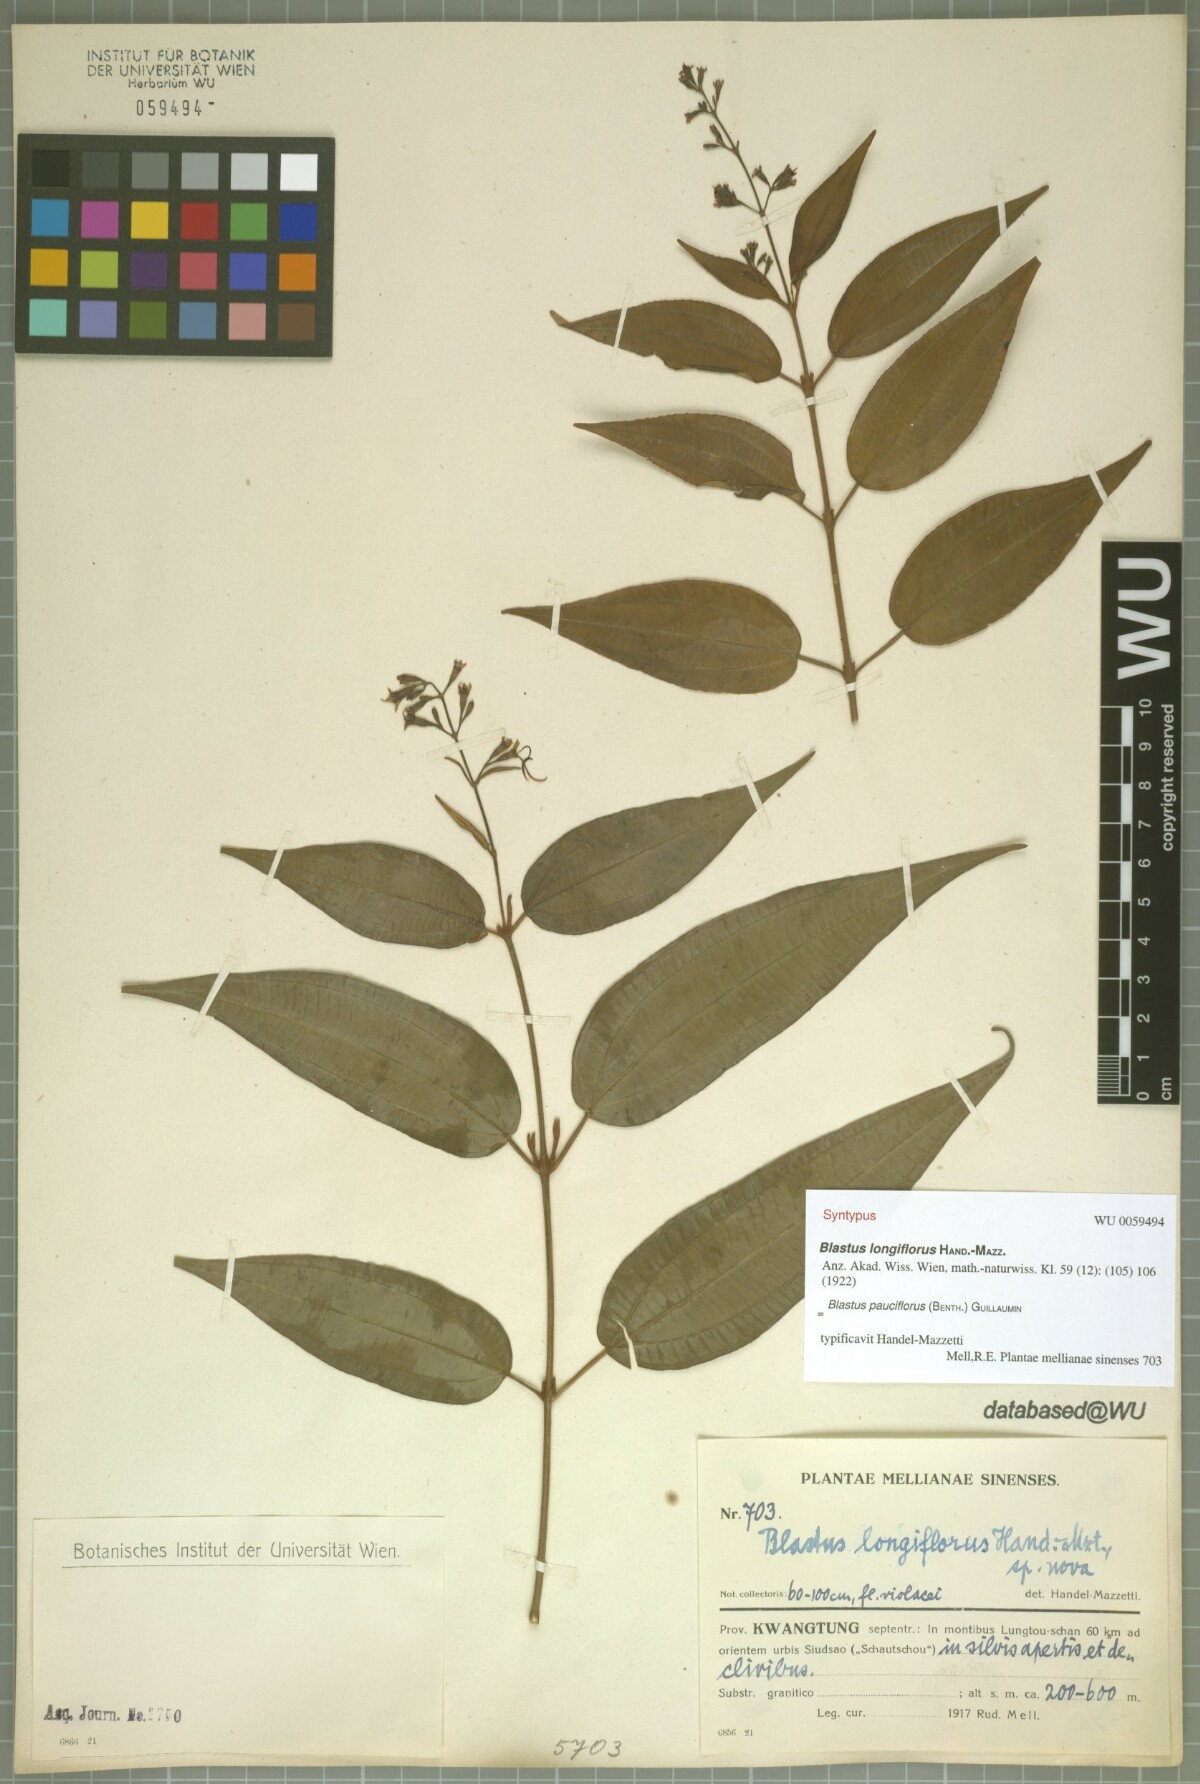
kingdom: Plantae
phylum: Tracheophyta
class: Magnoliopsida
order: Myrtales
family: Melastomataceae
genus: Blastus
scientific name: Blastus pauciflorus
